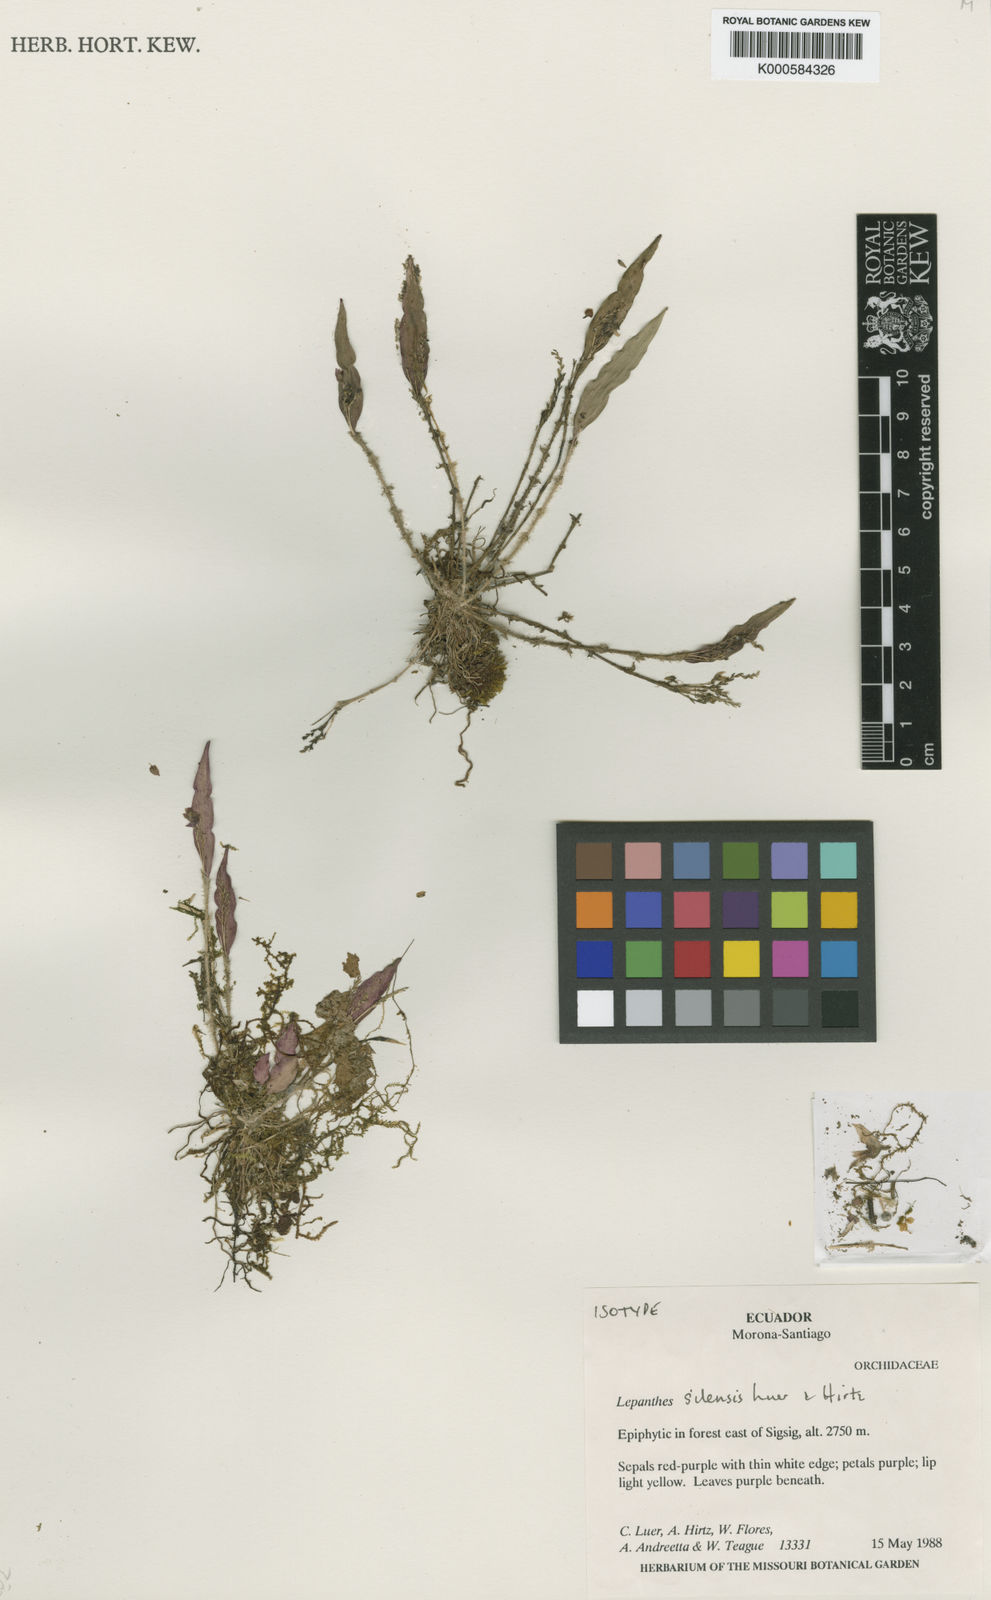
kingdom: Plantae
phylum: Tracheophyta
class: Liliopsida
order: Asparagales
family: Orchidaceae
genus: Lepanthes
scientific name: Lepanthes
